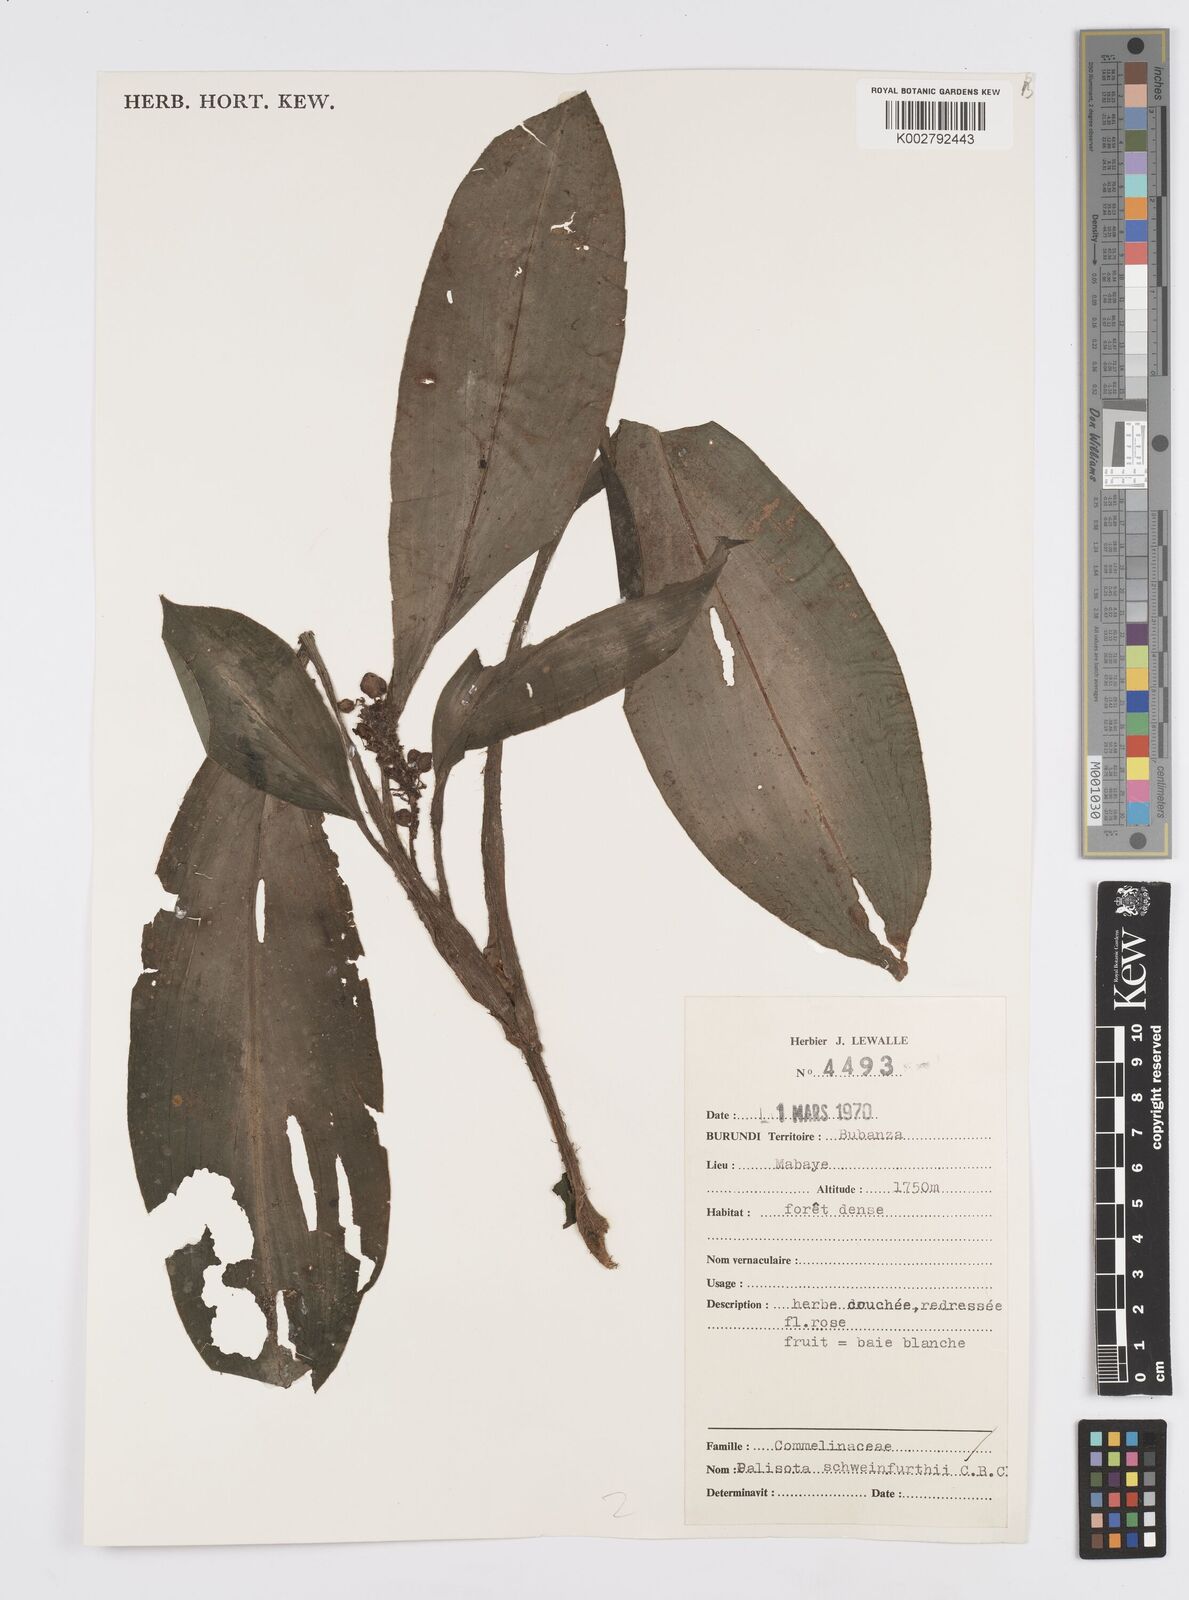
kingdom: Plantae
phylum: Tracheophyta
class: Liliopsida
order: Commelinales
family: Commelinaceae
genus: Palisota
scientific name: Palisota schweinfurthii
